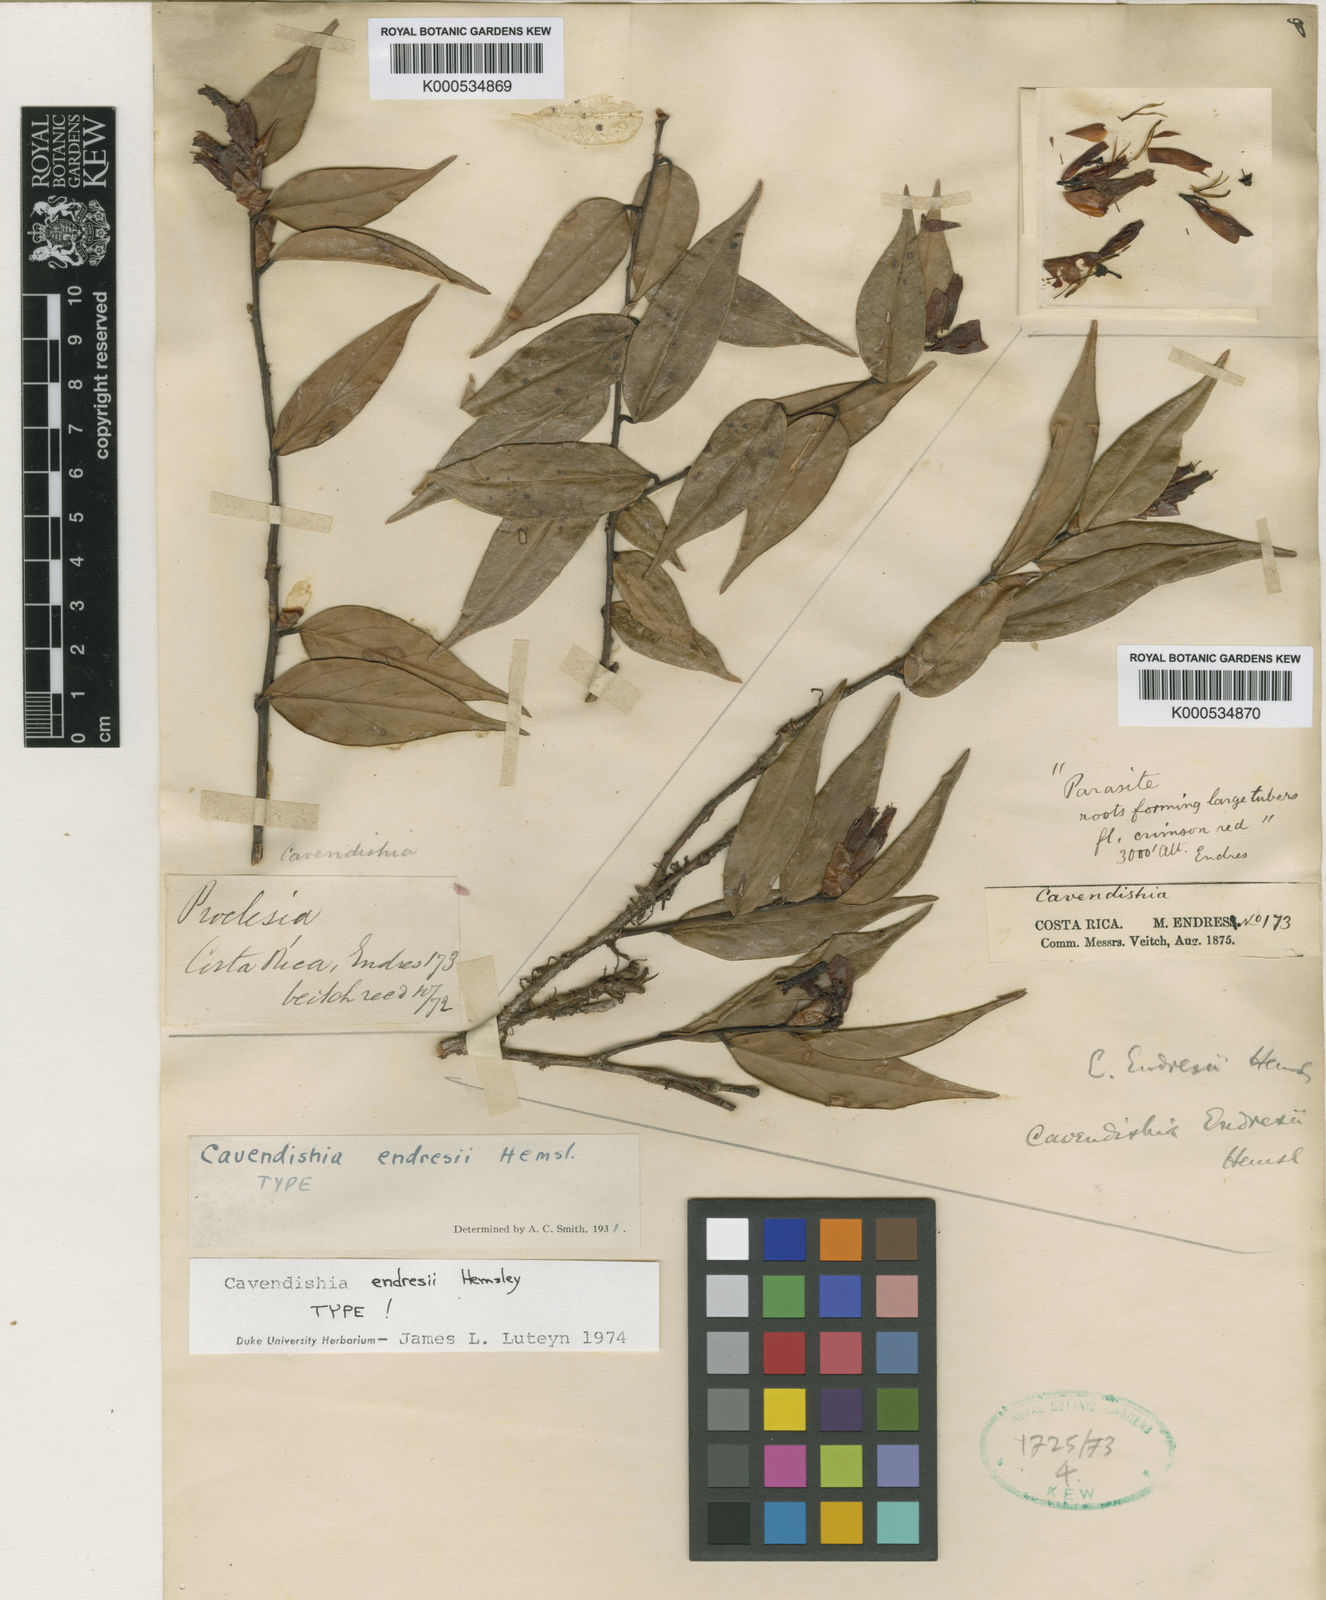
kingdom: Plantae
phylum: Tracheophyta
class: Magnoliopsida
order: Ericales
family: Ericaceae
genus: Cavendishia
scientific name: Cavendishia endresii
